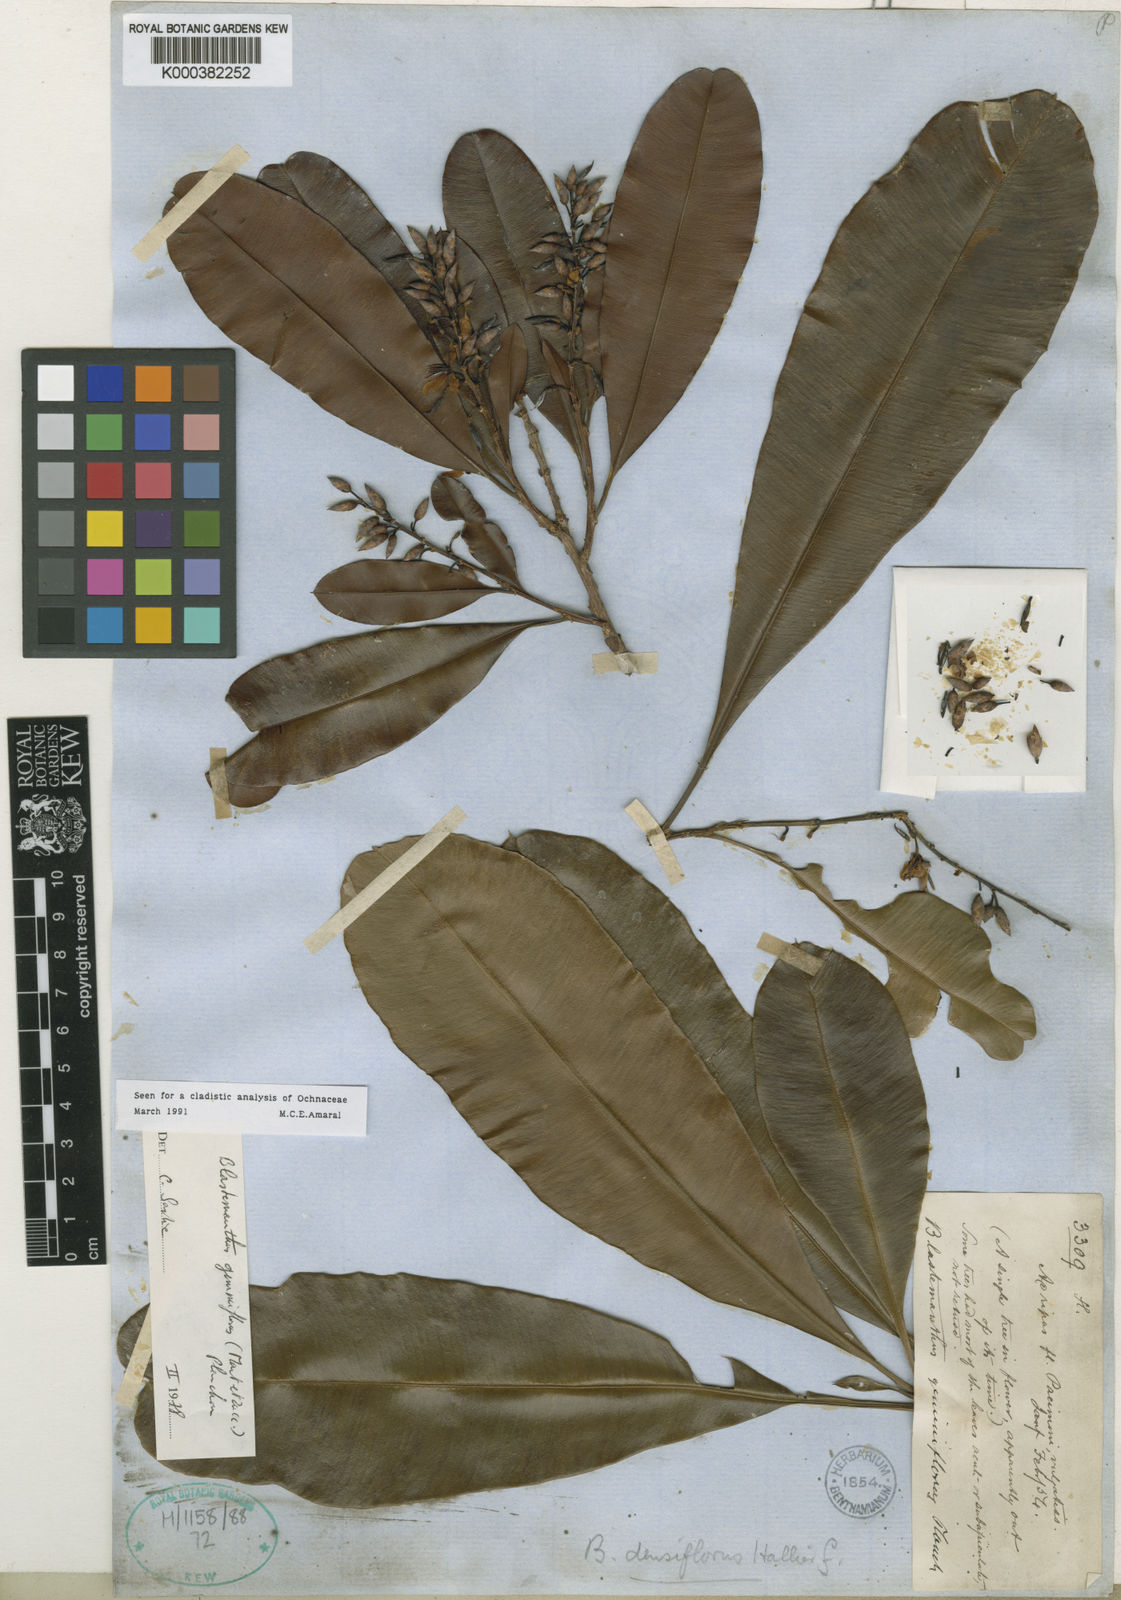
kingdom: Plantae
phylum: Tracheophyta
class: Magnoliopsida
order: Malpighiales
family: Ochnaceae
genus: Blastemanthus
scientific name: Blastemanthus gemmiflorus
